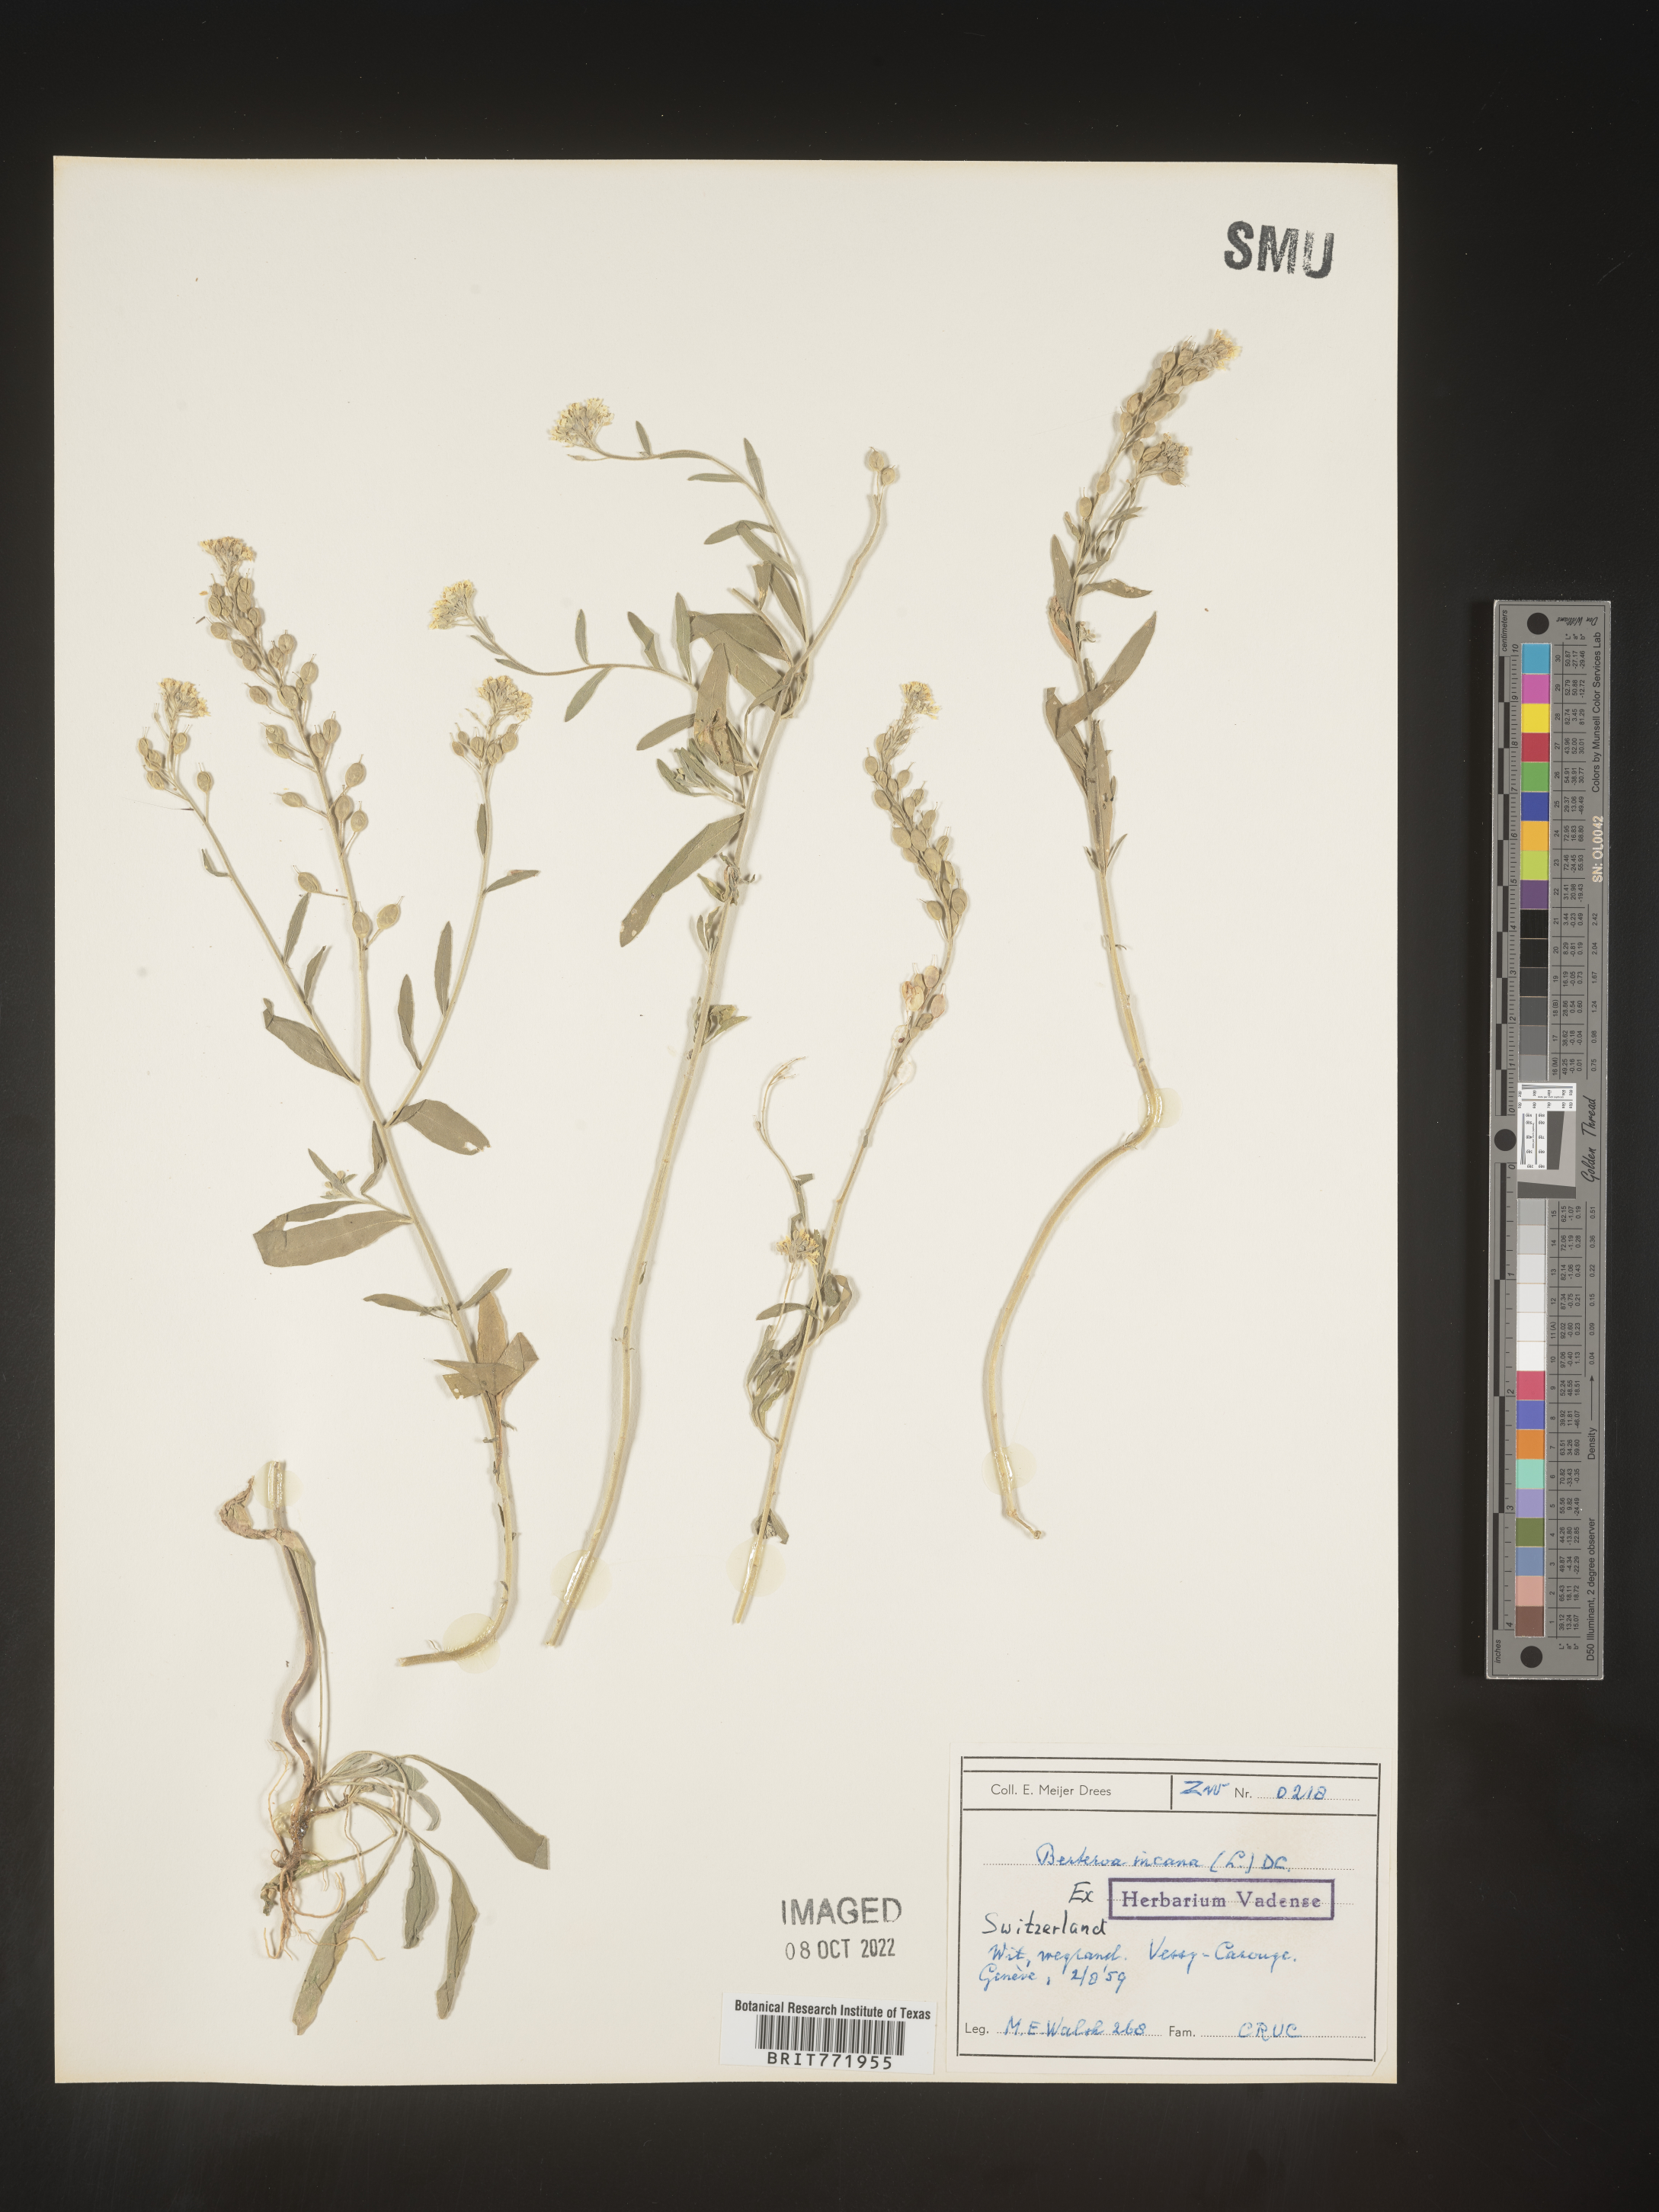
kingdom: Plantae
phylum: Tracheophyta
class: Magnoliopsida
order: Brassicales
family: Brassicaceae
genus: Berteroa
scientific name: Berteroa
